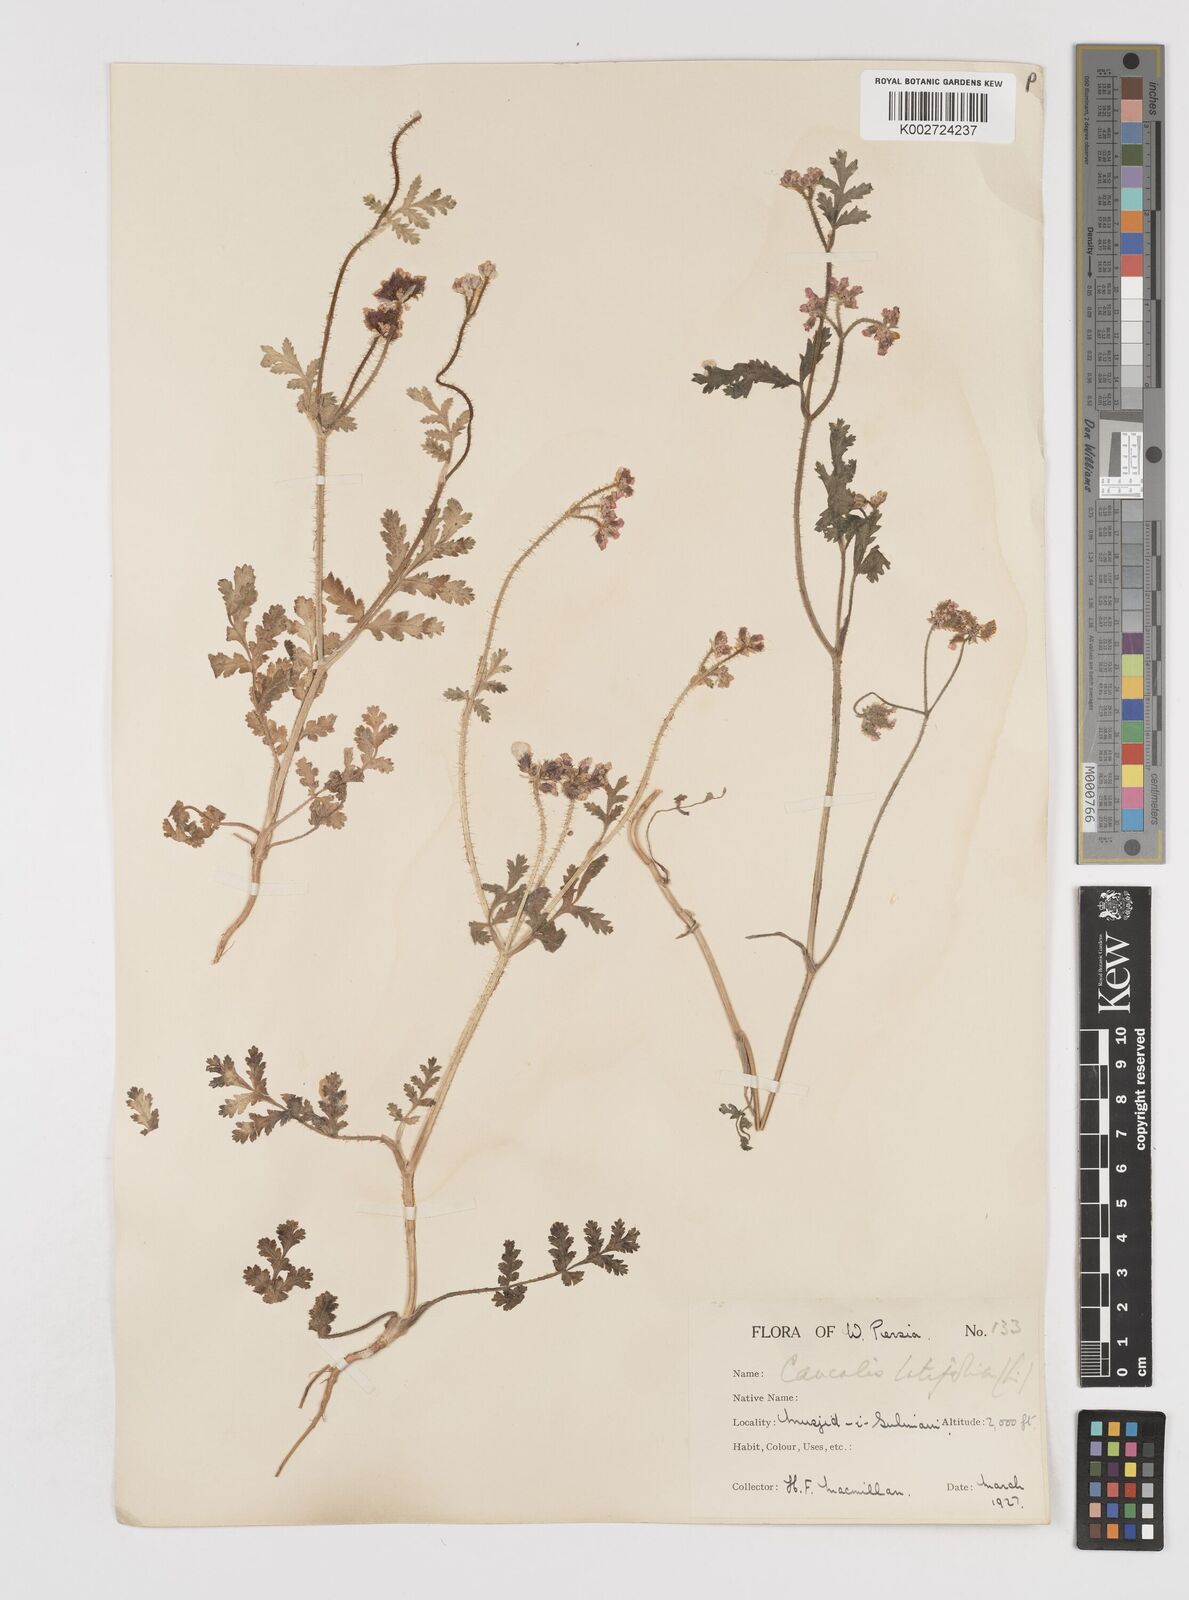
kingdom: Plantae
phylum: Tracheophyta
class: Magnoliopsida
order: Apiales
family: Apiaceae
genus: Turgenia
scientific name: Turgenia latifolia
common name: Greater bur-parsley
